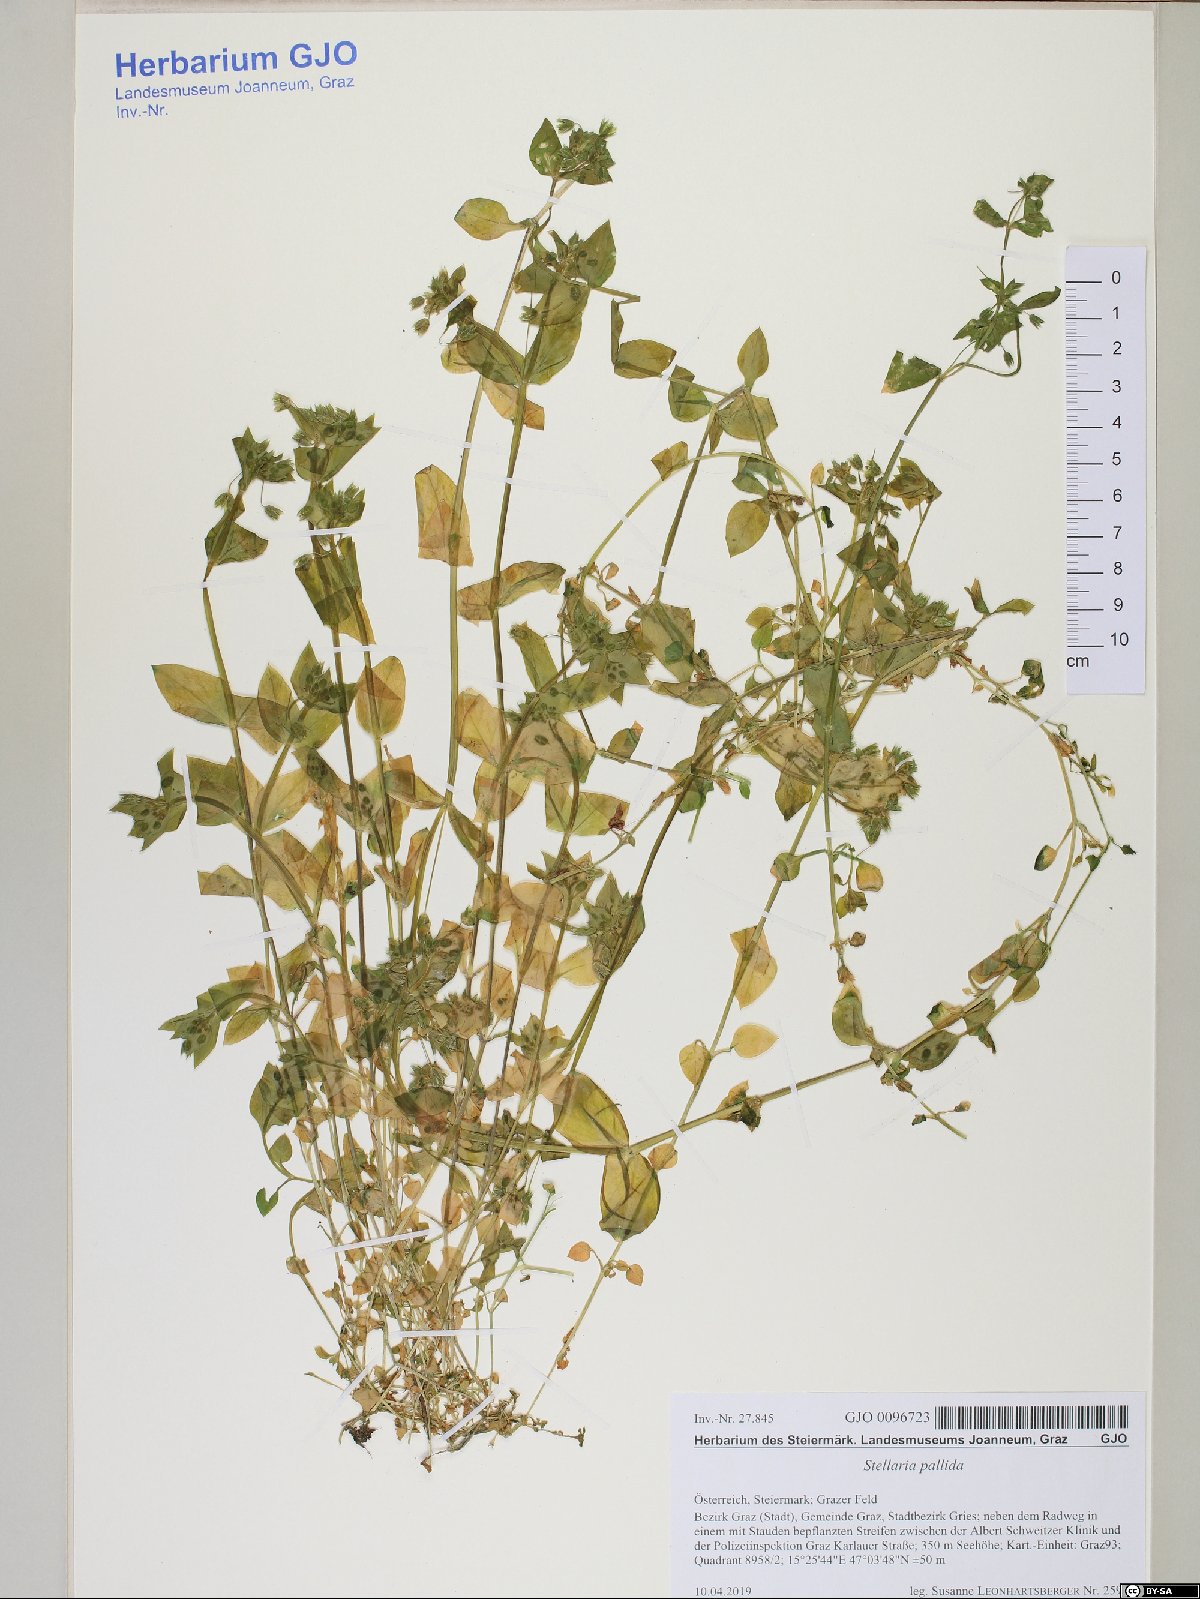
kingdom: Plantae
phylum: Tracheophyta
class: Magnoliopsida
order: Caryophyllales
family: Caryophyllaceae
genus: Stellaria
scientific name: Stellaria apetala
